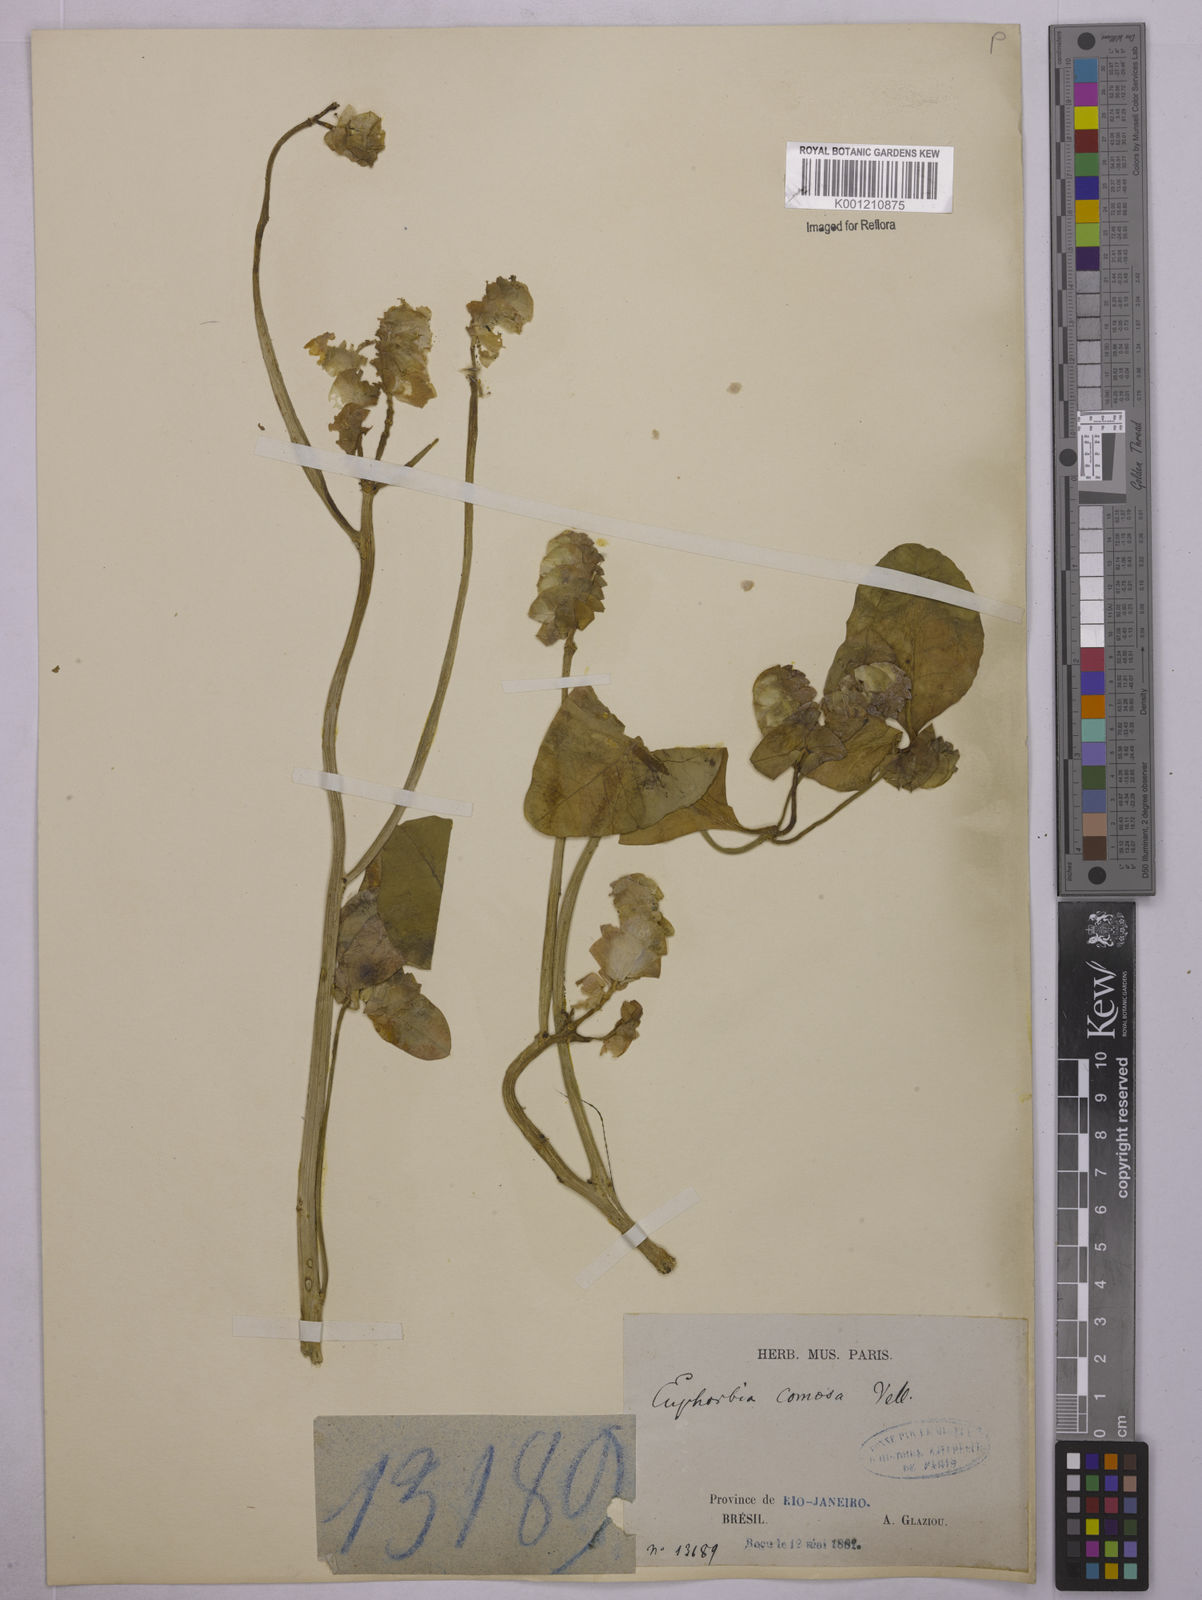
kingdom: Plantae
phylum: Tracheophyta
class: Magnoliopsida
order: Malpighiales
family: Euphorbiaceae
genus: Euphorbia
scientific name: Euphorbia comosa
